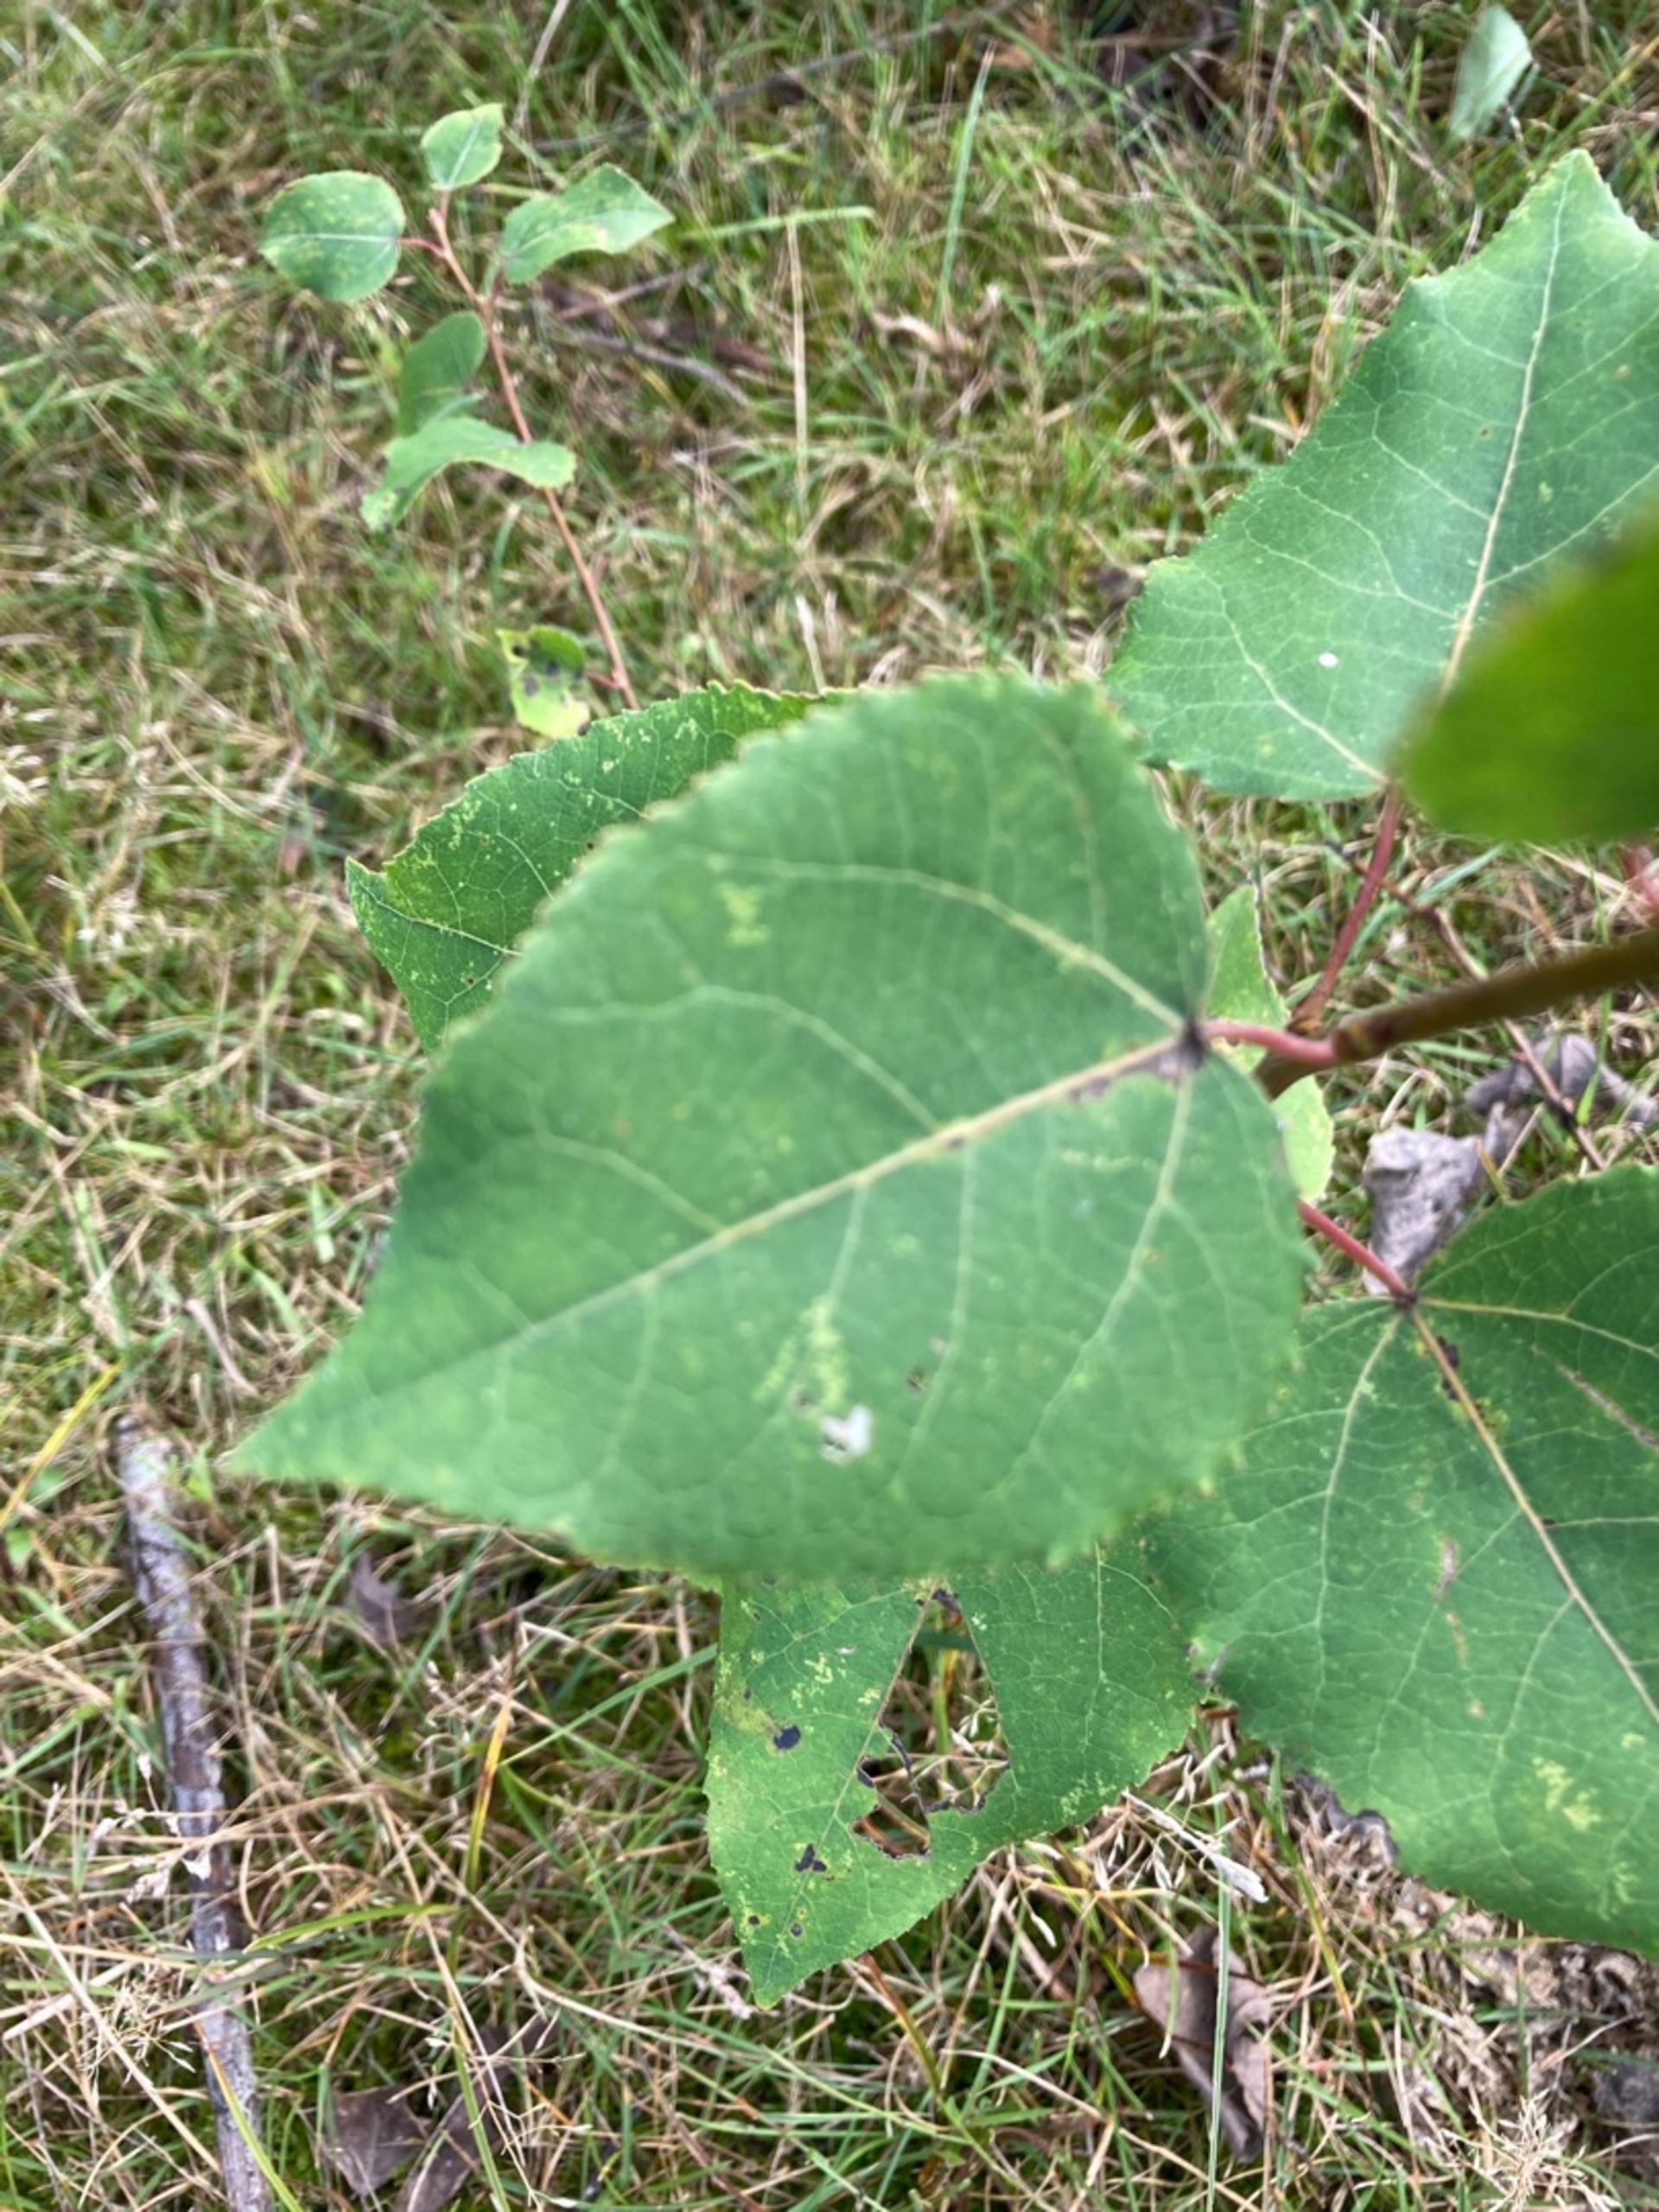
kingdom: Plantae
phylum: Tracheophyta
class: Magnoliopsida
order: Malpighiales
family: Salicaceae
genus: Populus
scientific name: Populus tremula
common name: Bævreasp
